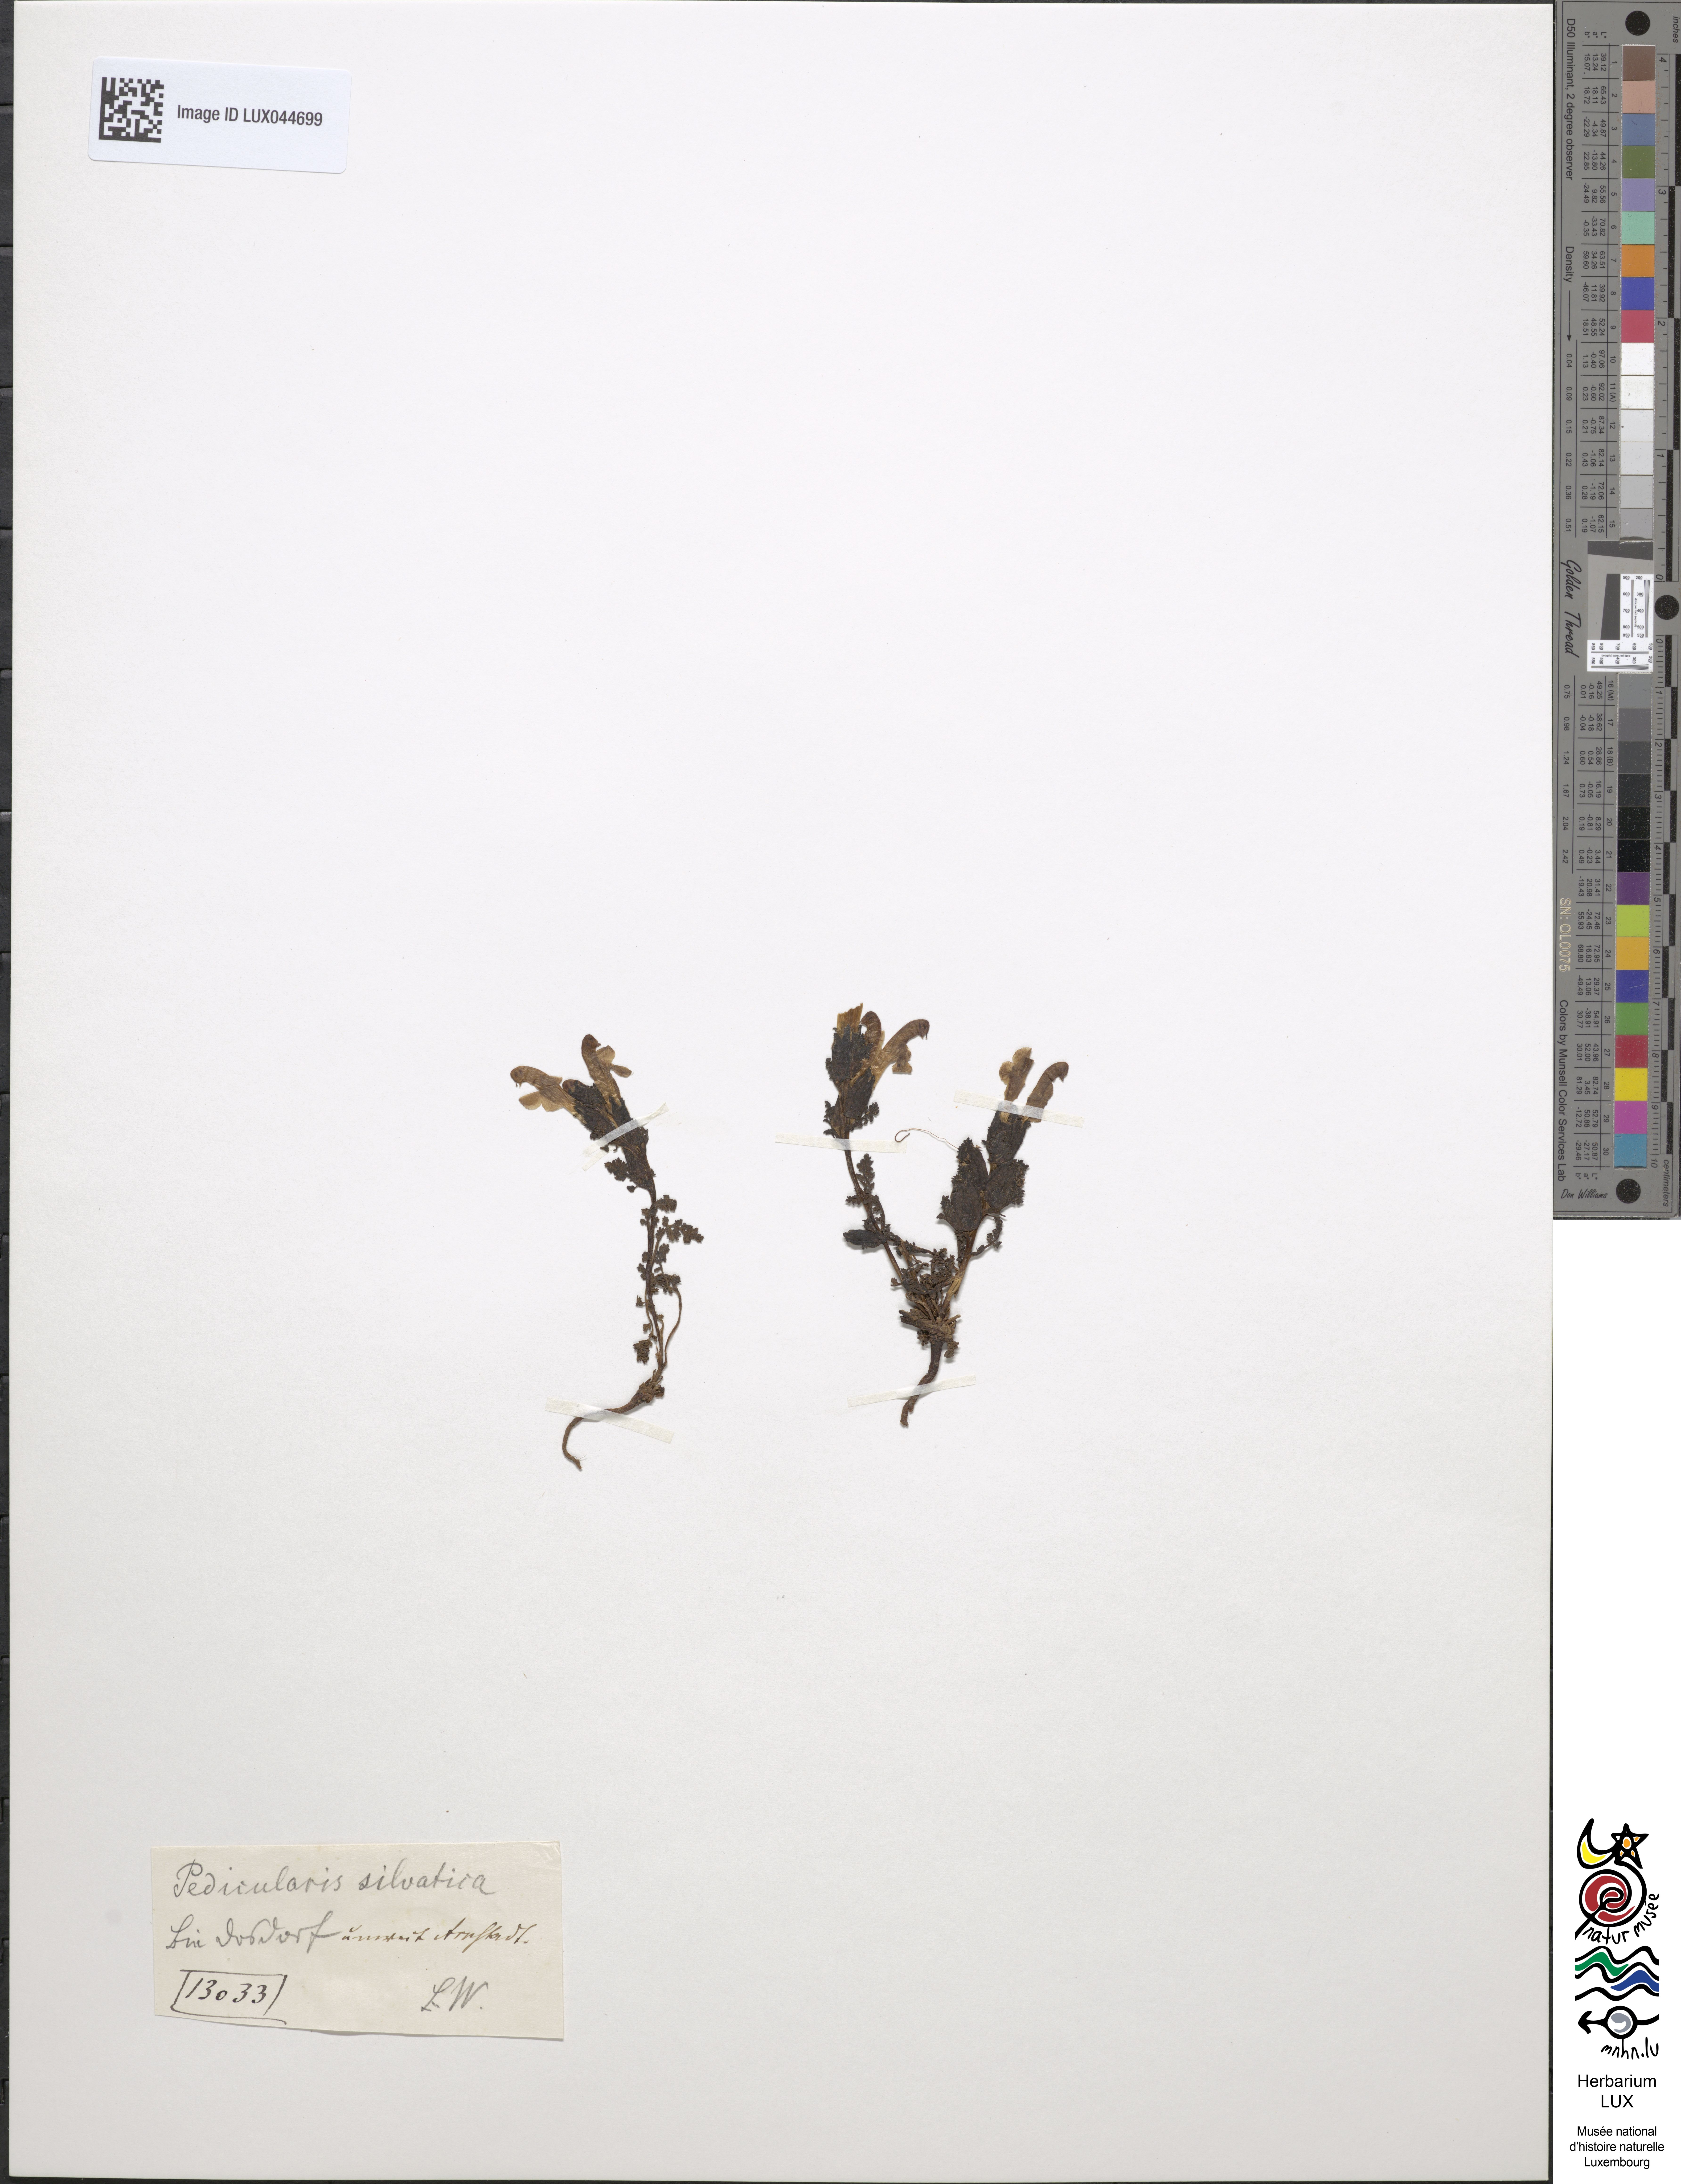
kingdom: Plantae
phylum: Tracheophyta
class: Magnoliopsida
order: Lamiales
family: Orobanchaceae
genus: Pedicularis
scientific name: Pedicularis sylvatica
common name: Lousewort
